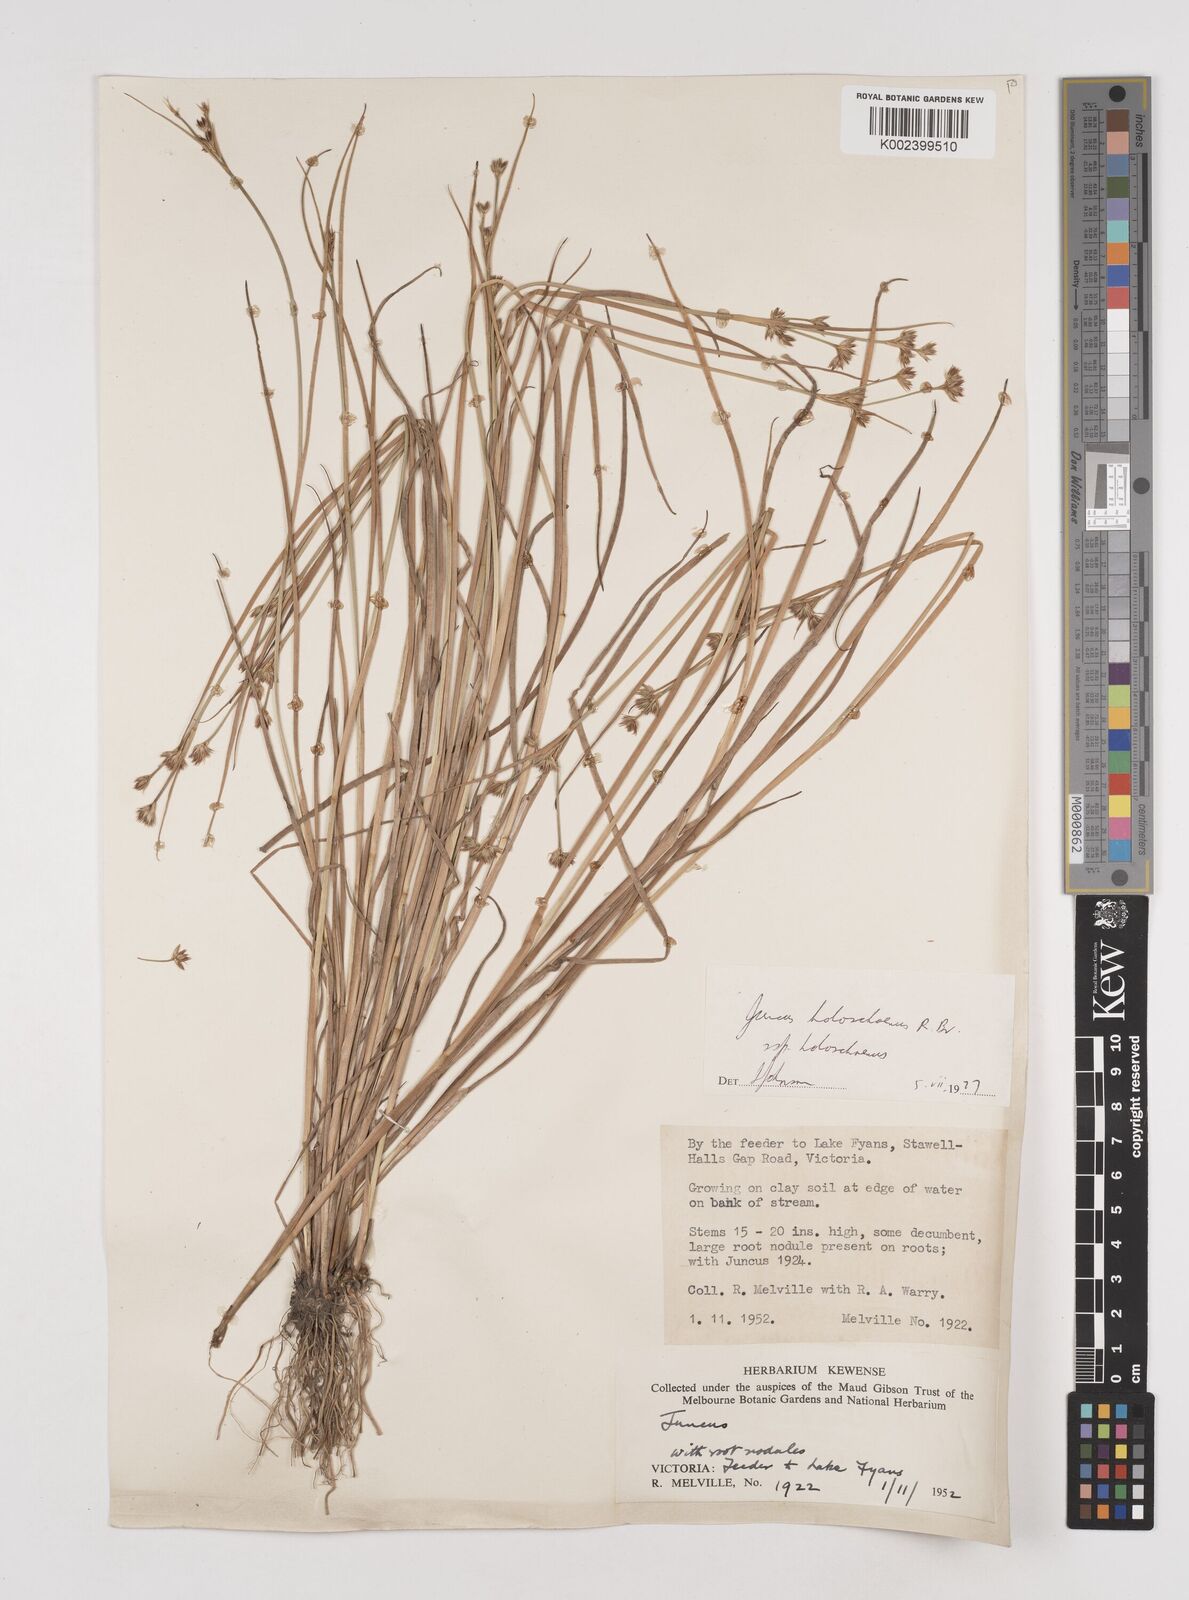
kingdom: Plantae
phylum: Tracheophyta
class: Liliopsida
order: Poales
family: Juncaceae
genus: Juncus
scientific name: Juncus holoschoenus
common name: Joint-leaf rush
